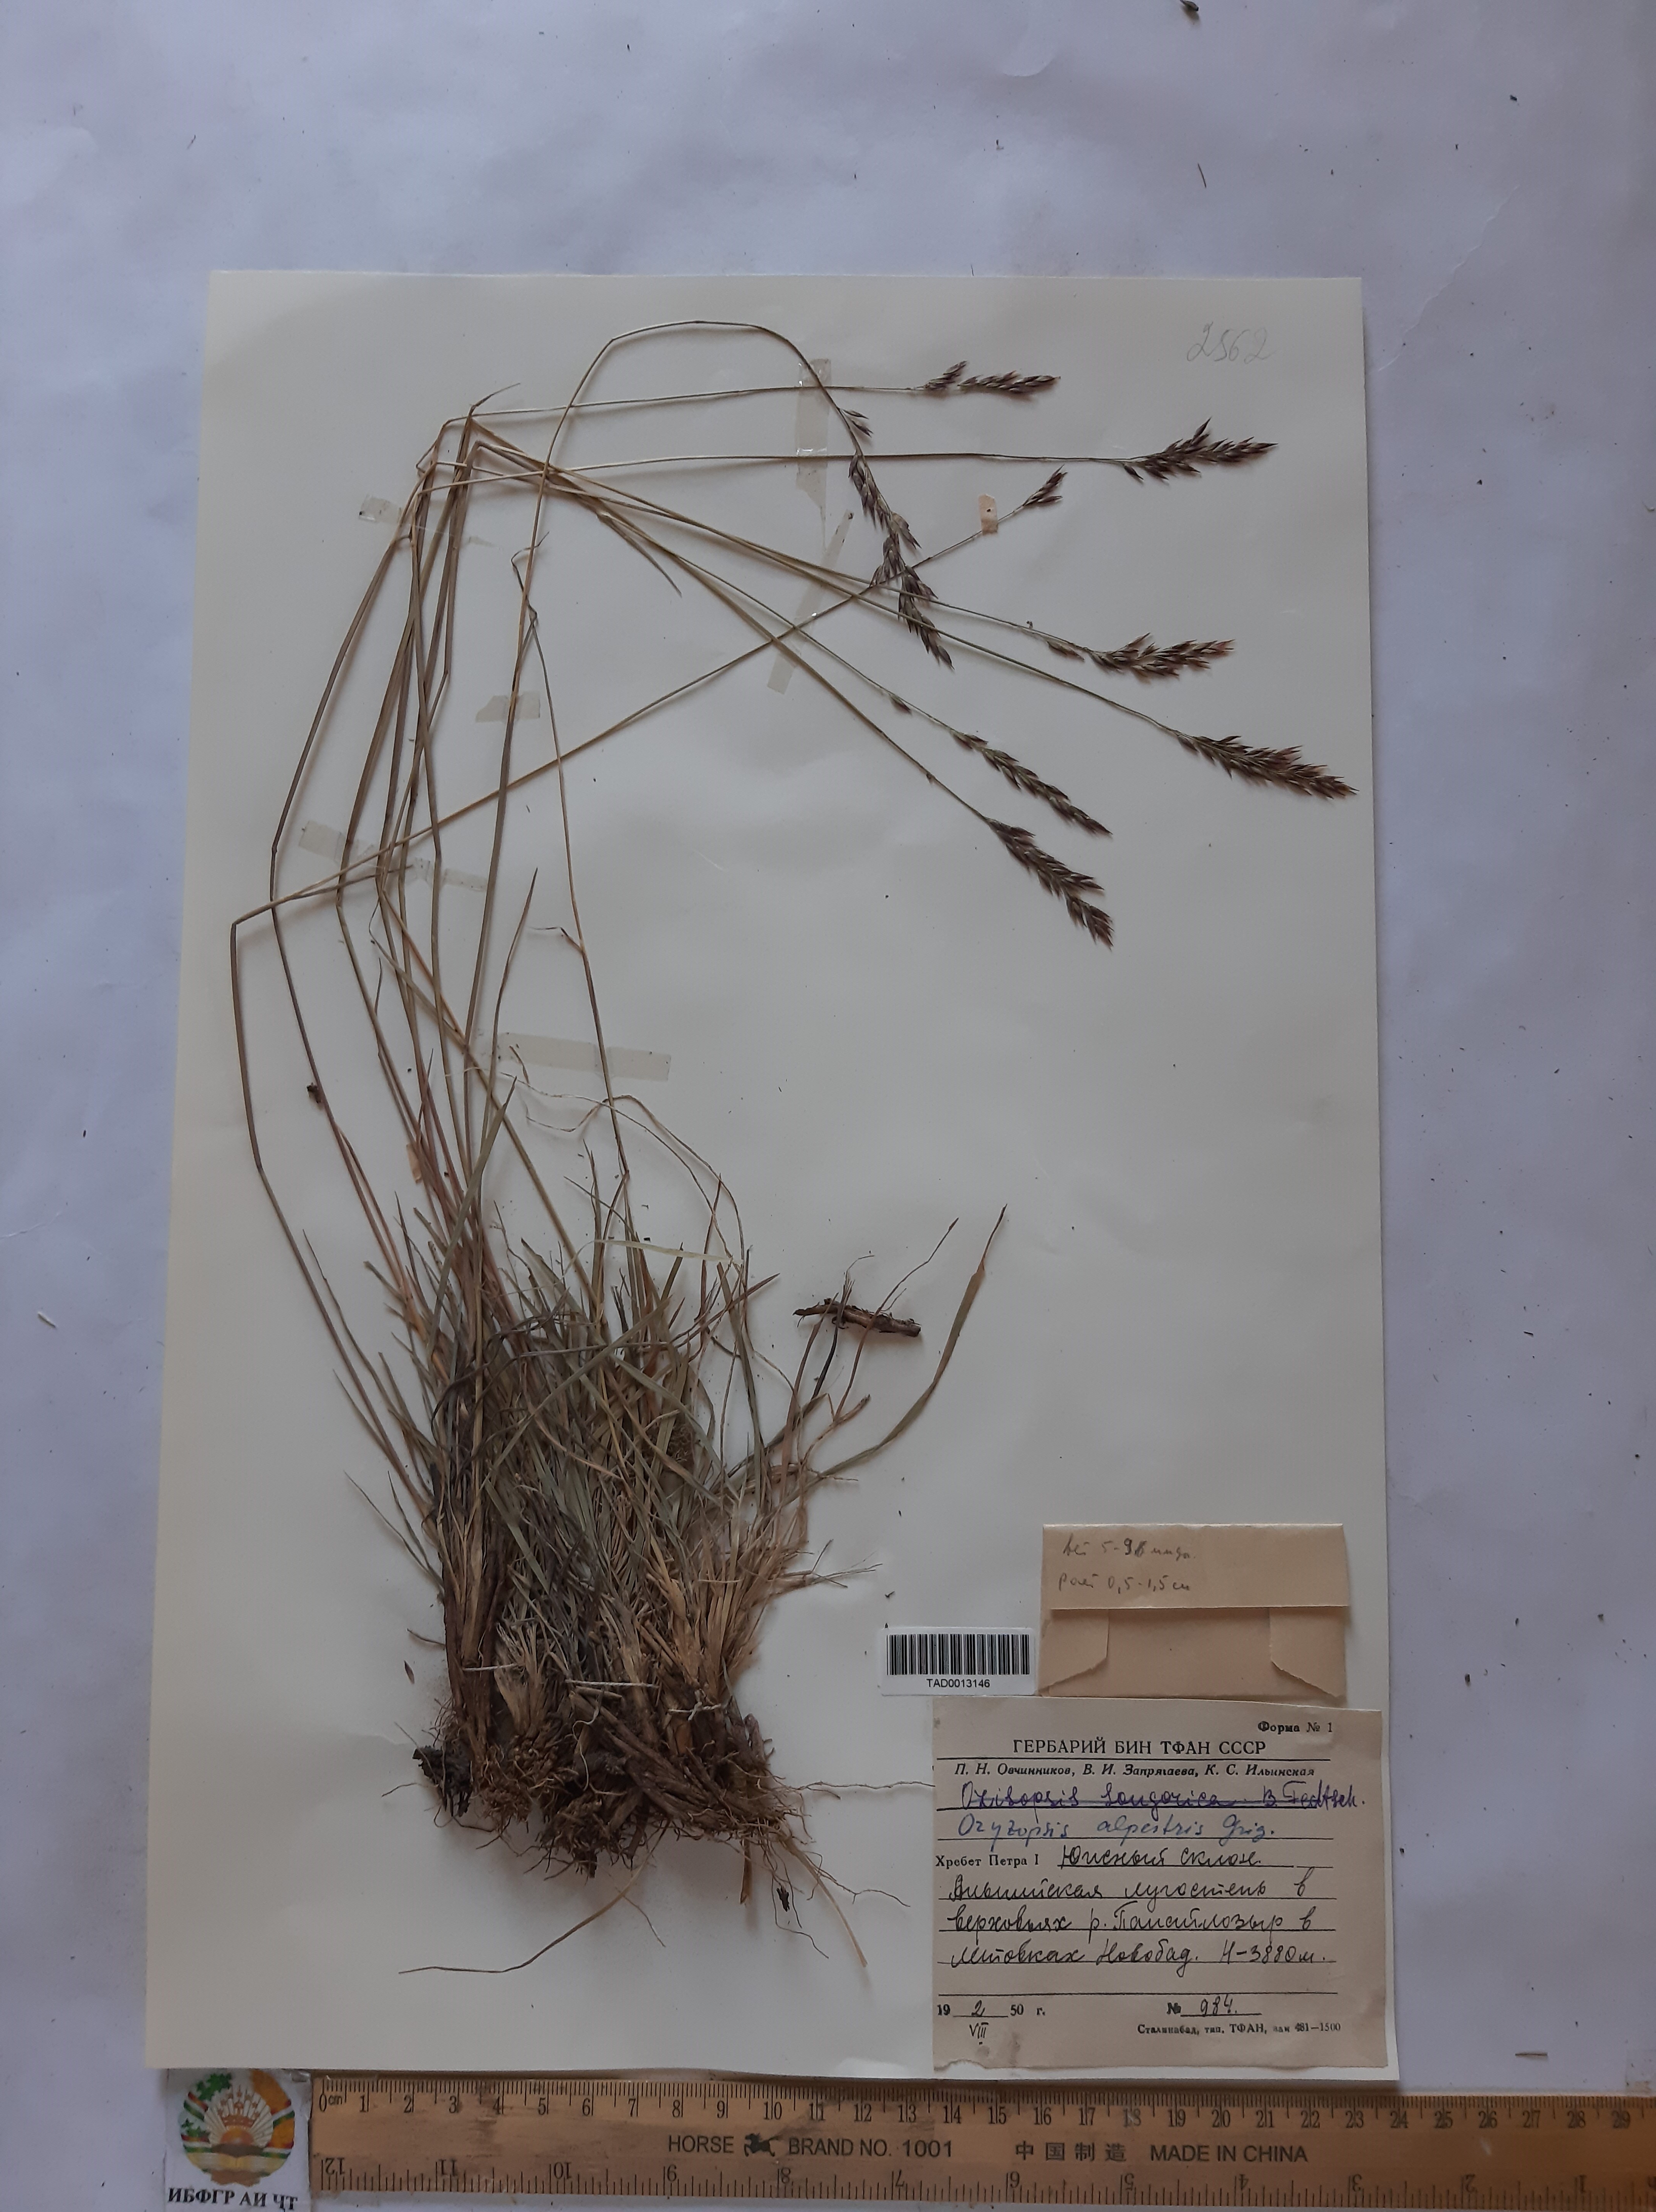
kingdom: Plantae
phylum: Tracheophyta
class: Liliopsida
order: Poales
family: Poaceae
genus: Piptatherum
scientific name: Piptatherum alpestre
